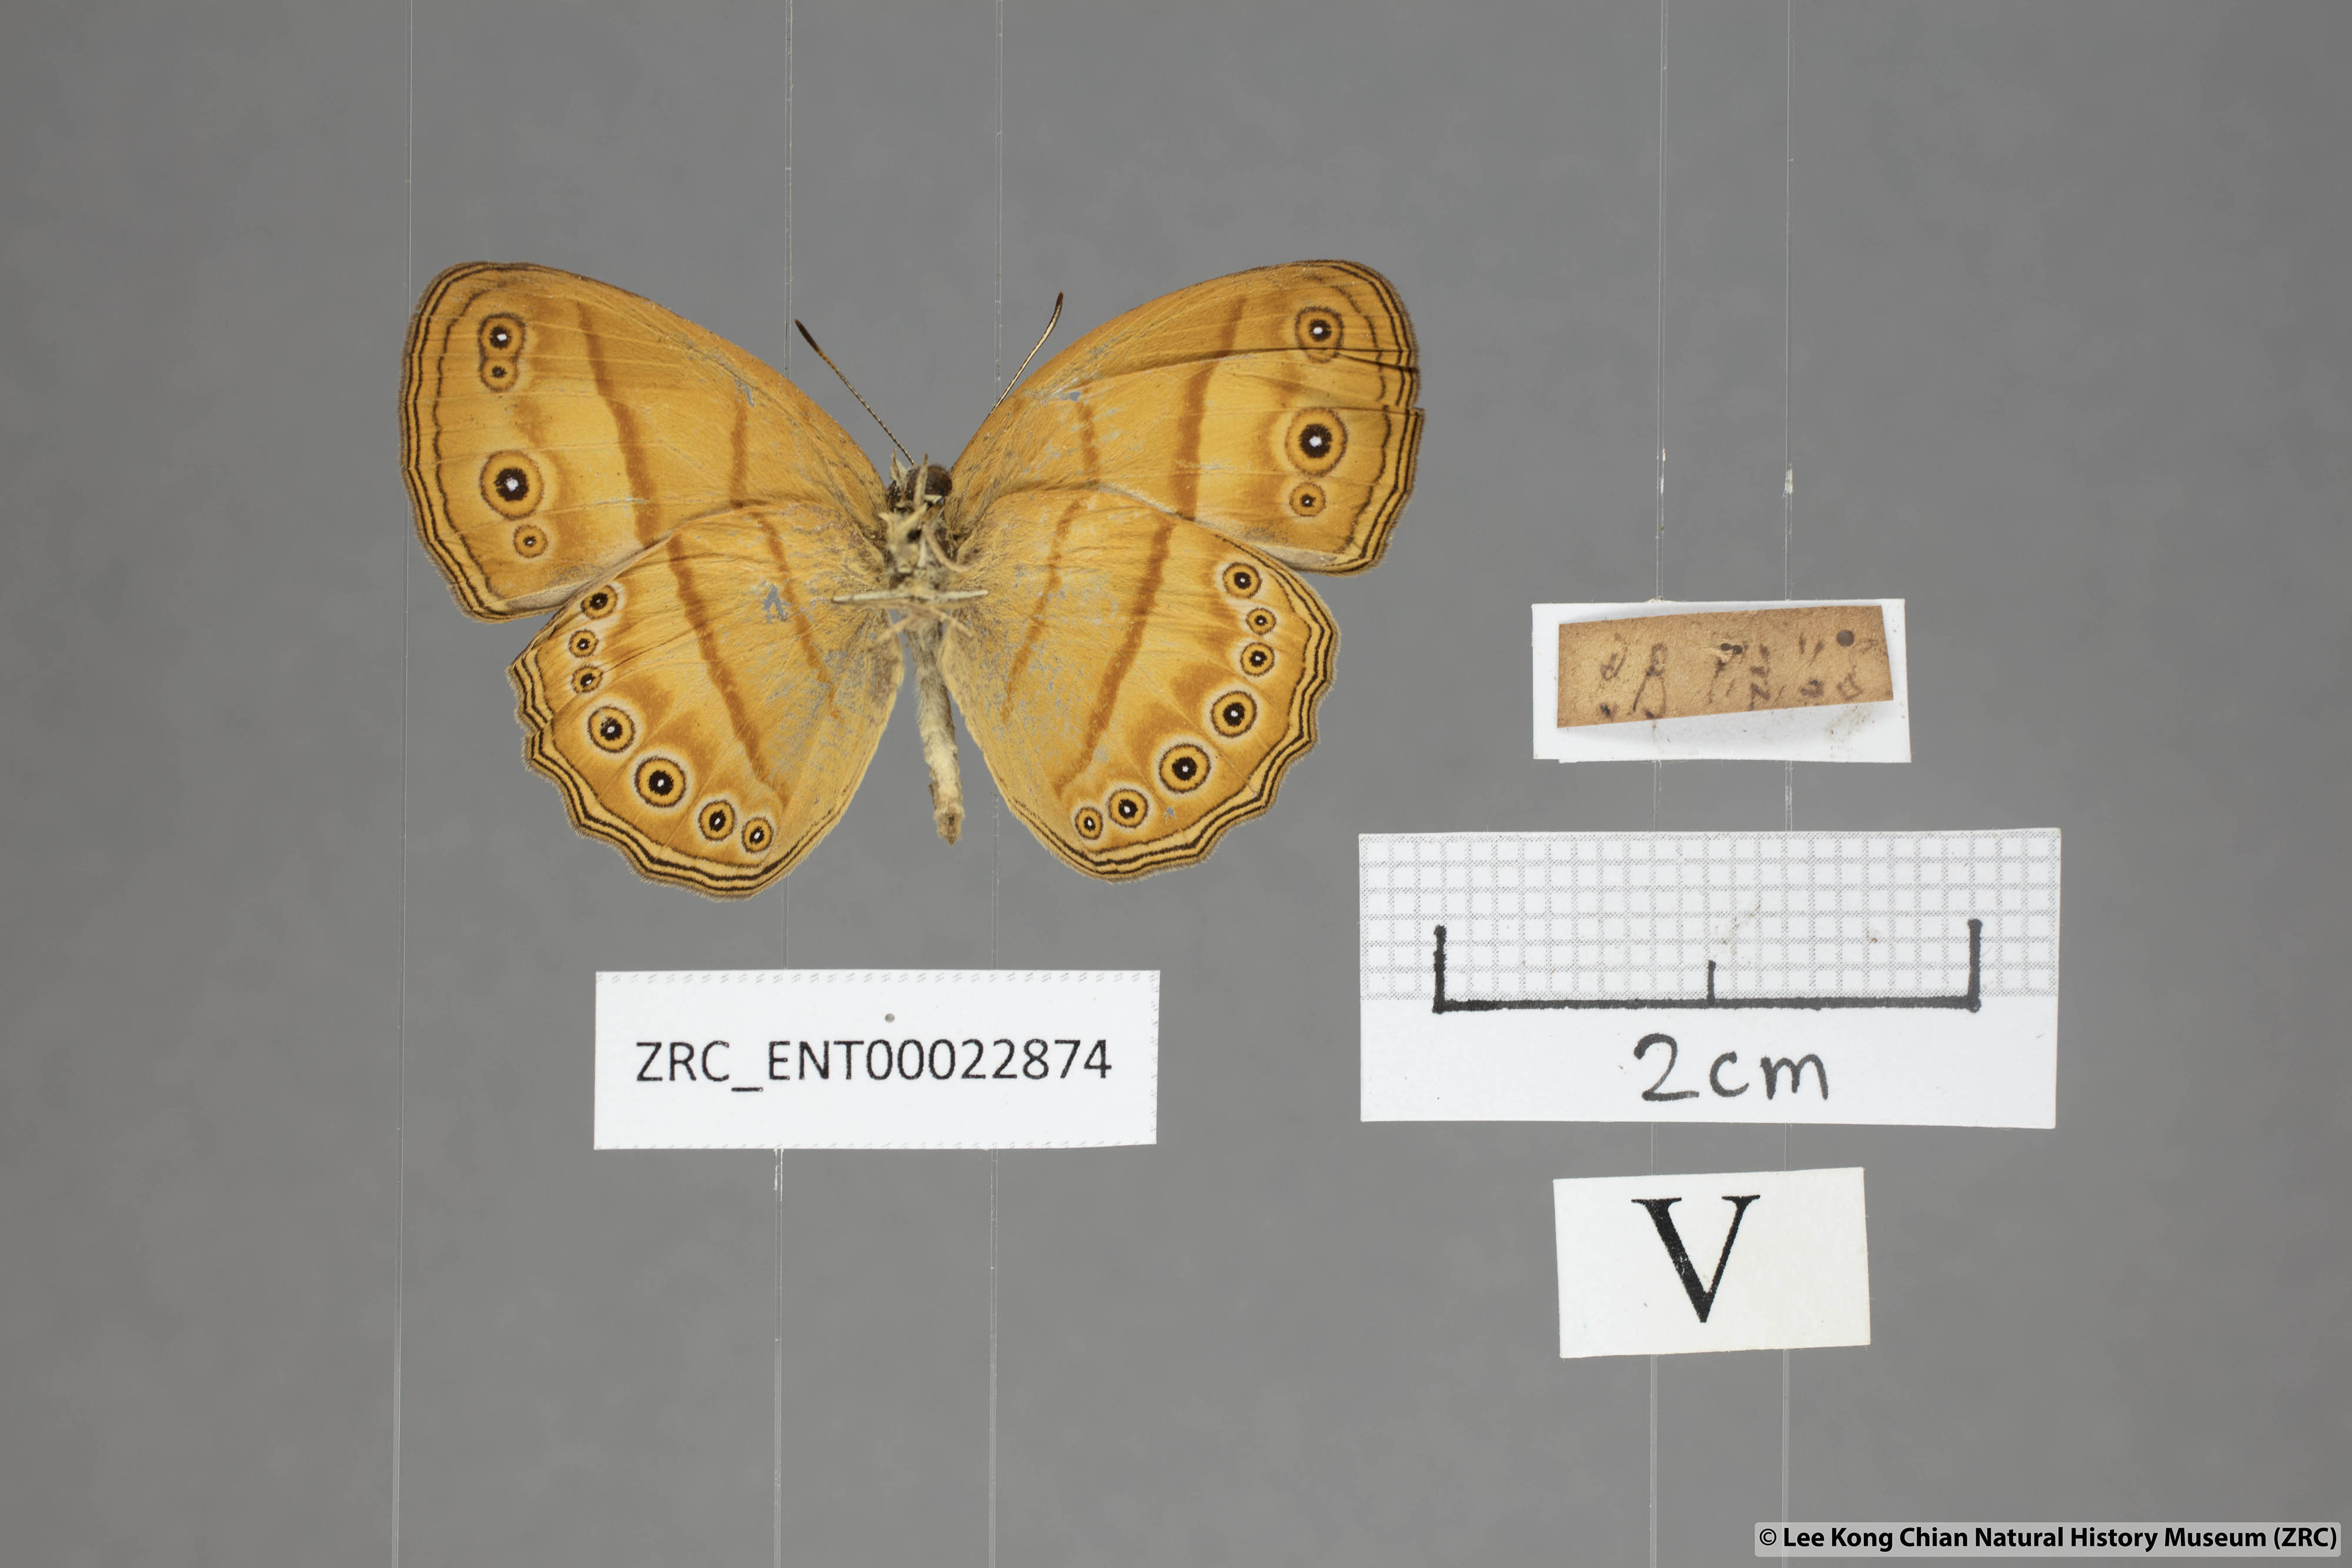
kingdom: Animalia
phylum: Arthropoda
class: Insecta
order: Lepidoptera
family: Nymphalidae
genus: Mycalesis
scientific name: Mycalesis anapita
